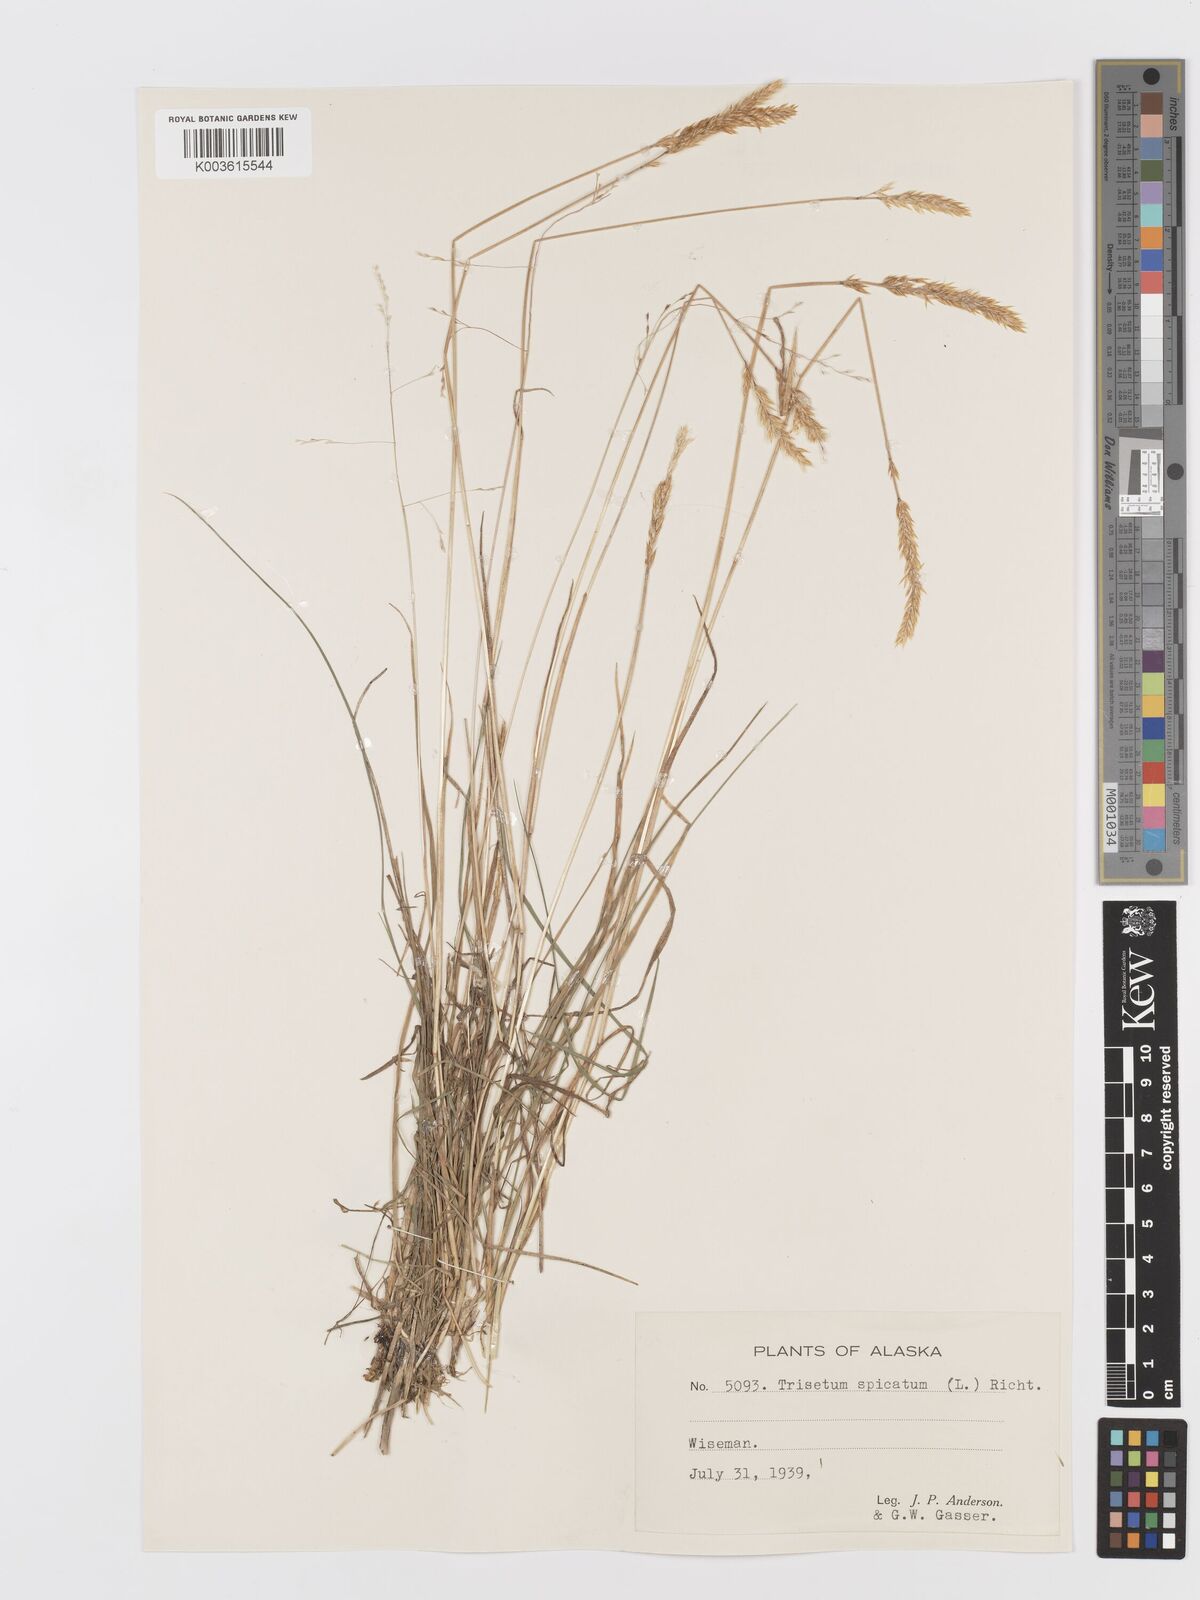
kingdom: Plantae
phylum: Tracheophyta
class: Liliopsida
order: Poales
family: Poaceae
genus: Koeleria
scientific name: Koeleria spicata
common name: Mountain trisetum
